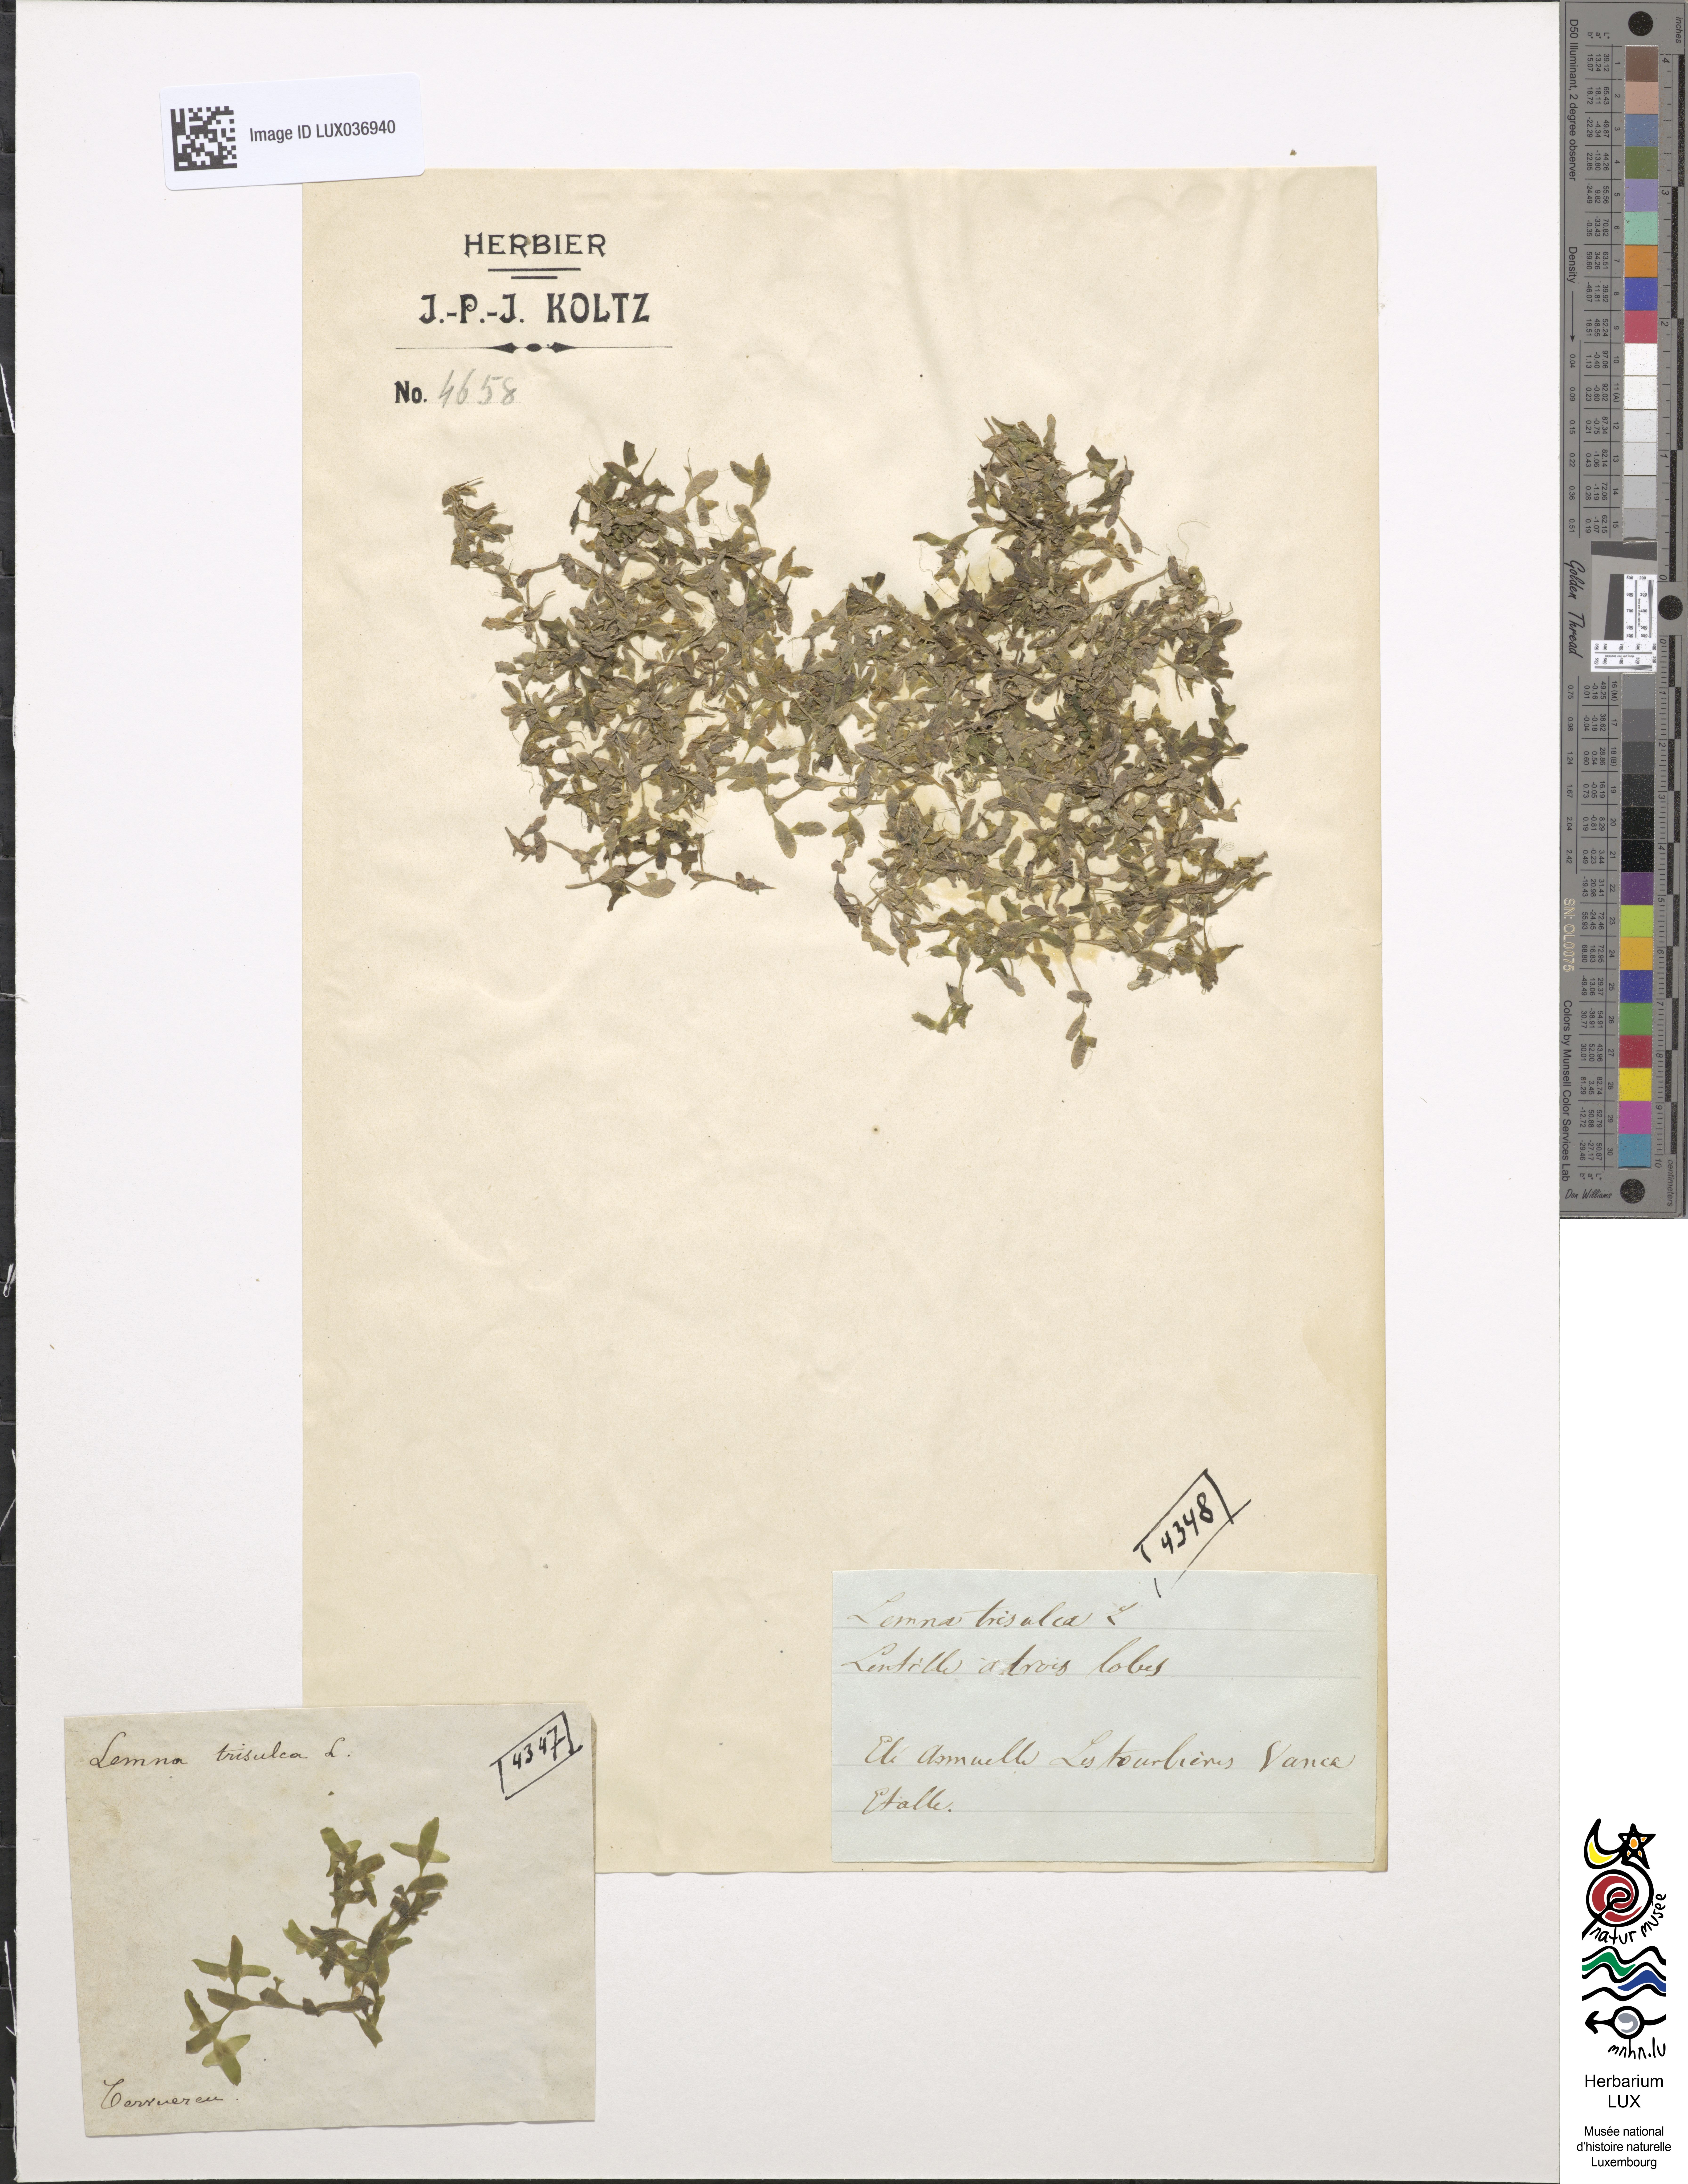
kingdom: Plantae
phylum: Tracheophyta
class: Liliopsida
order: Alismatales
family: Araceae
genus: Lemna
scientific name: Lemna trisulca
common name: Ivy-leaved duckweed
